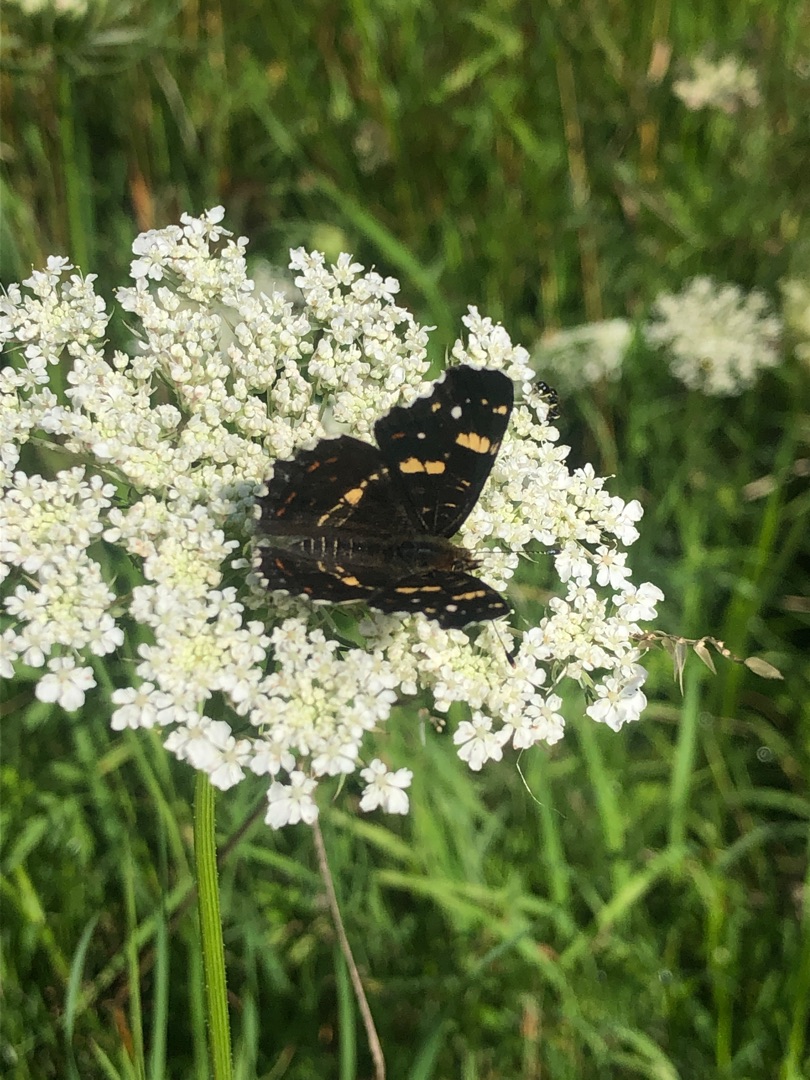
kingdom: Animalia
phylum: Arthropoda
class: Insecta
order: Lepidoptera
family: Nymphalidae
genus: Araschnia
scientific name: Araschnia levana
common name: Nældesommerfugl
